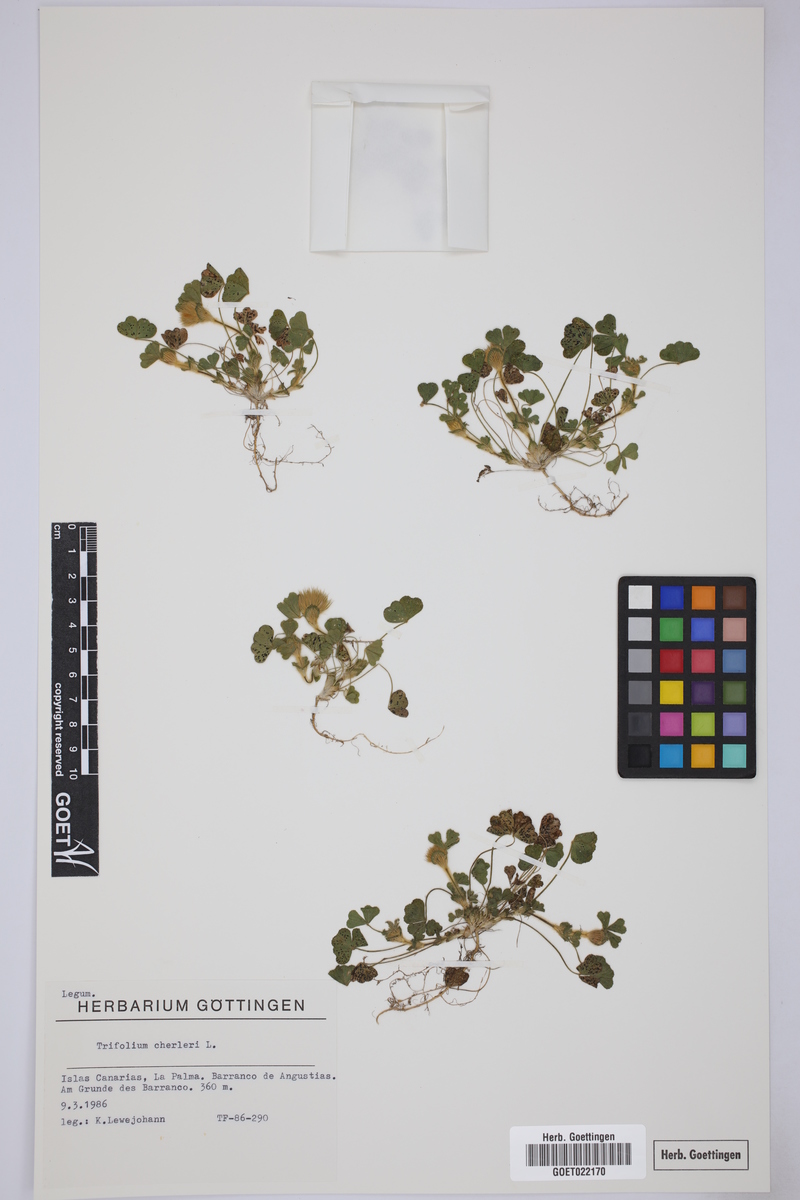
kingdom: Plantae
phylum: Tracheophyta
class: Magnoliopsida
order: Fabales
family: Fabaceae
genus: Trifolium
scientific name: Trifolium cherleri
